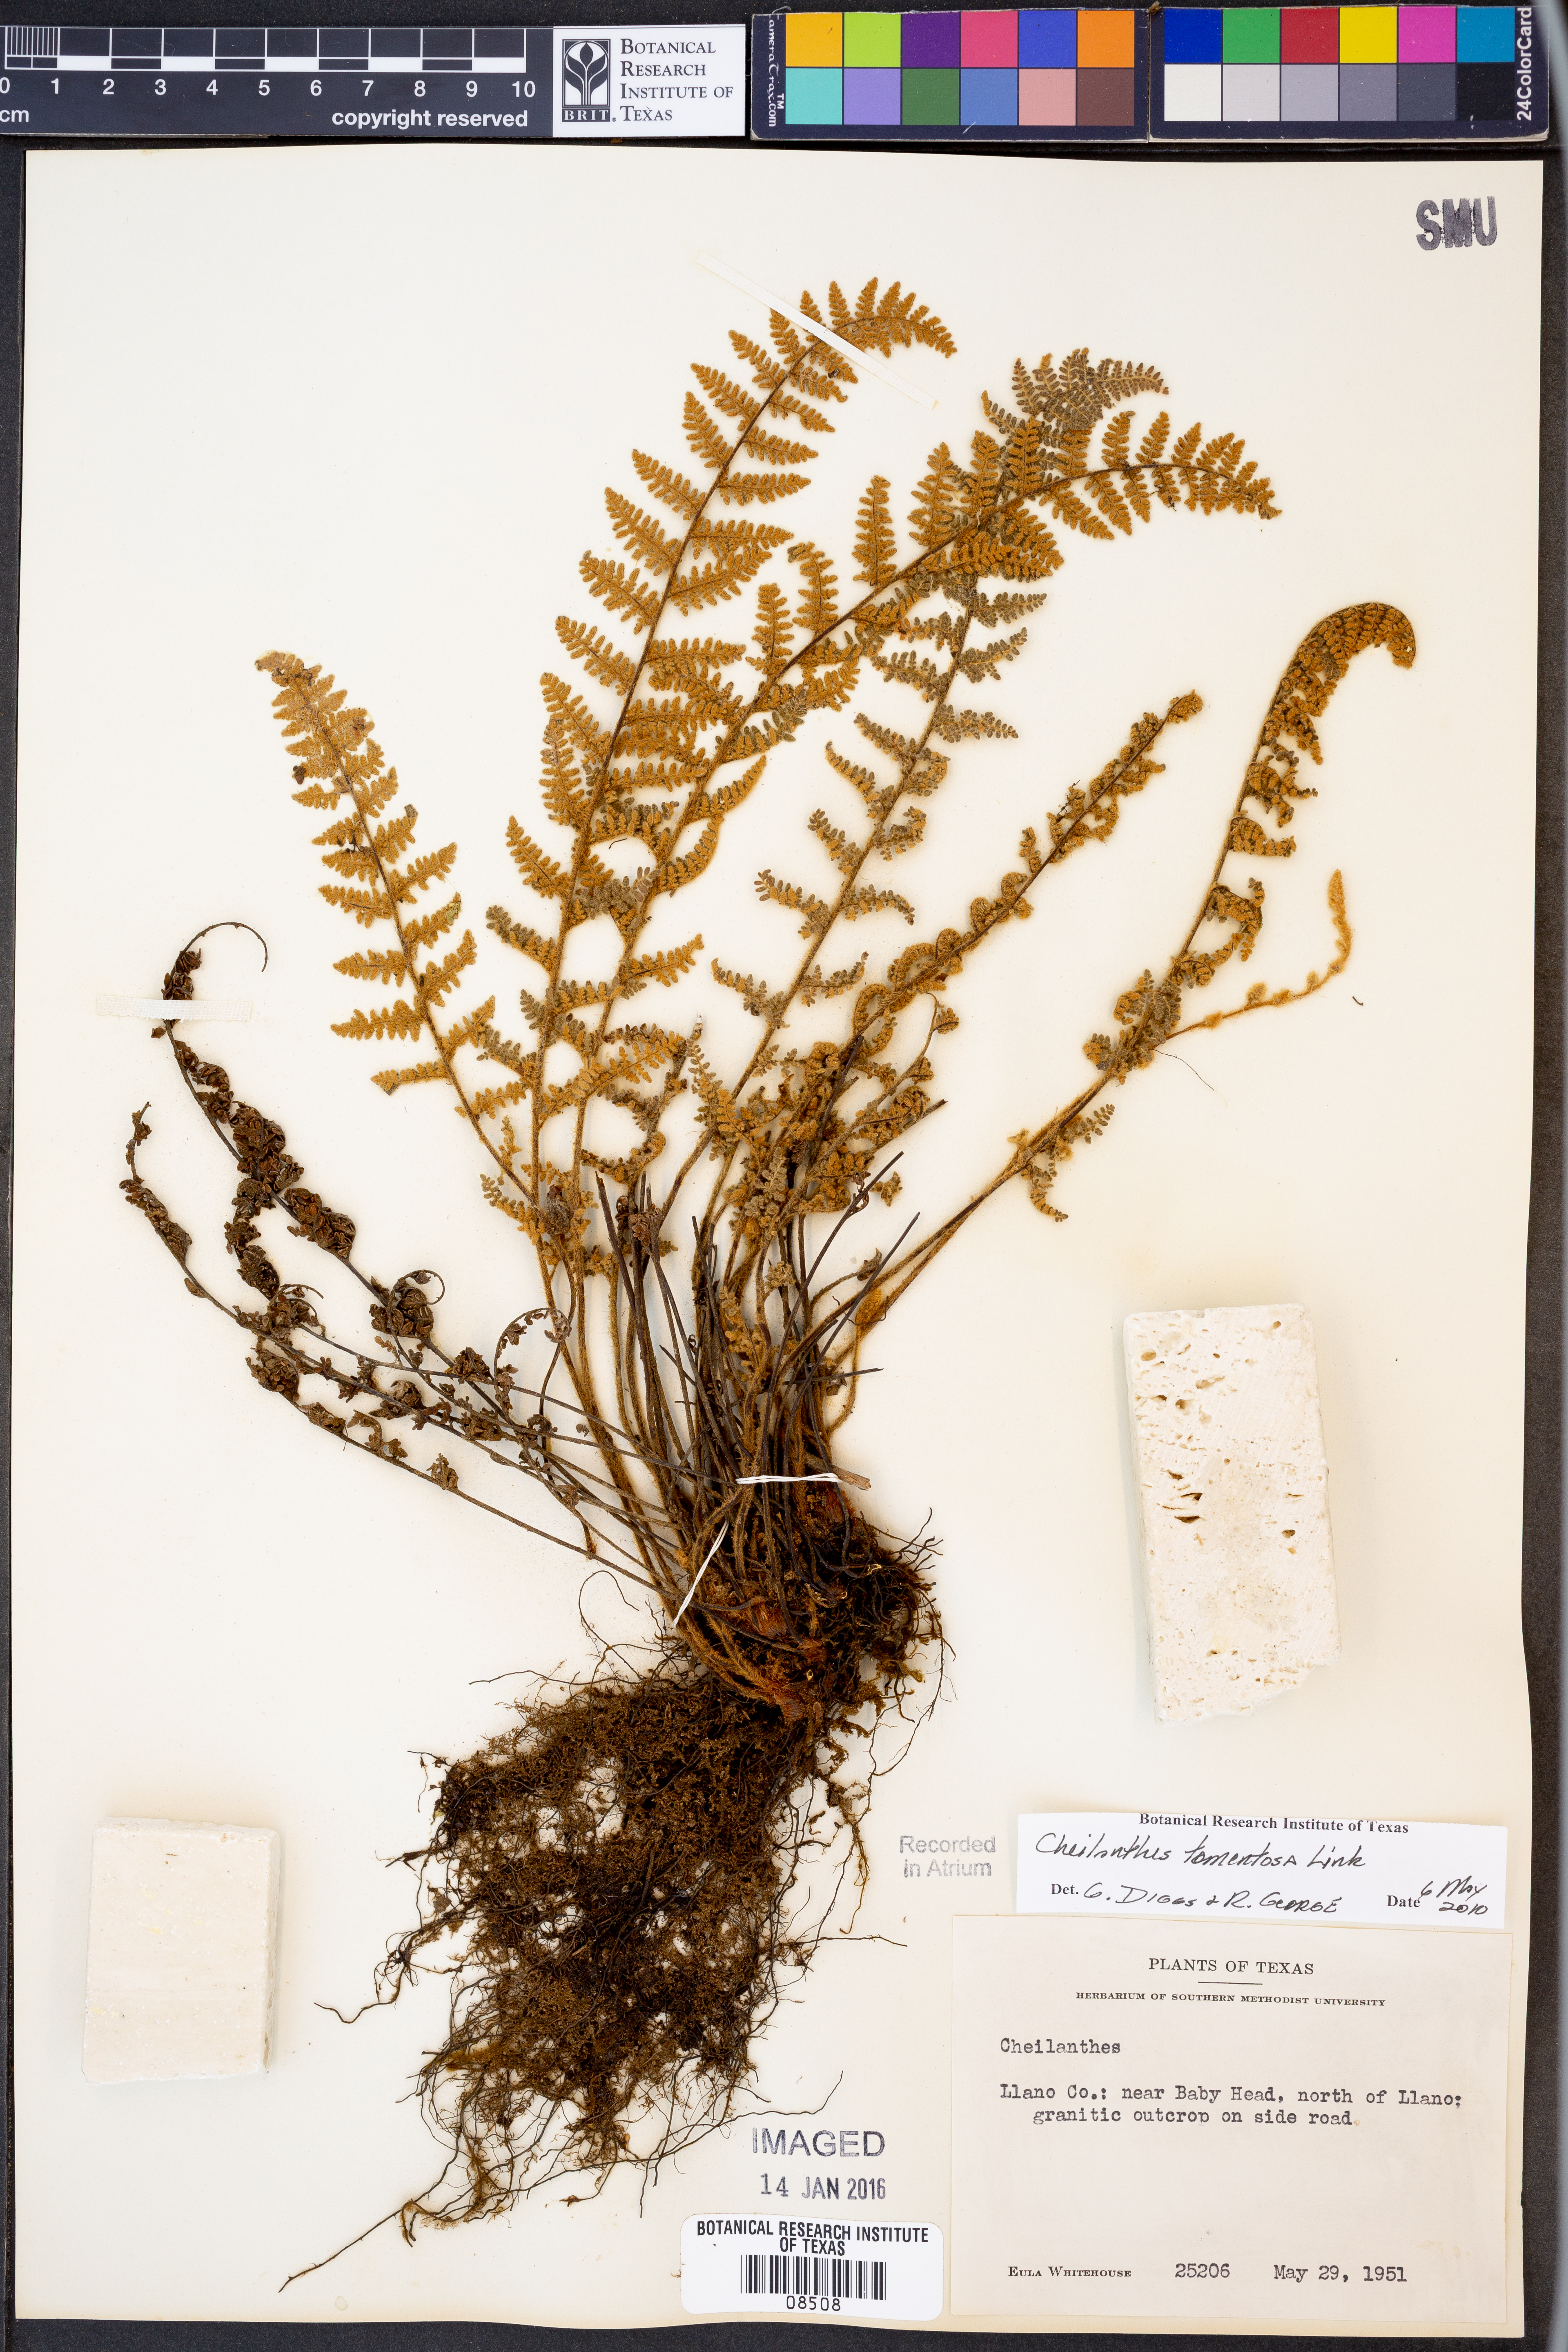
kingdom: Plantae
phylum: Tracheophyta
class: Polypodiopsida
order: Polypodiales
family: Pteridaceae
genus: Myriopteris
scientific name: Myriopteris tomentosa
